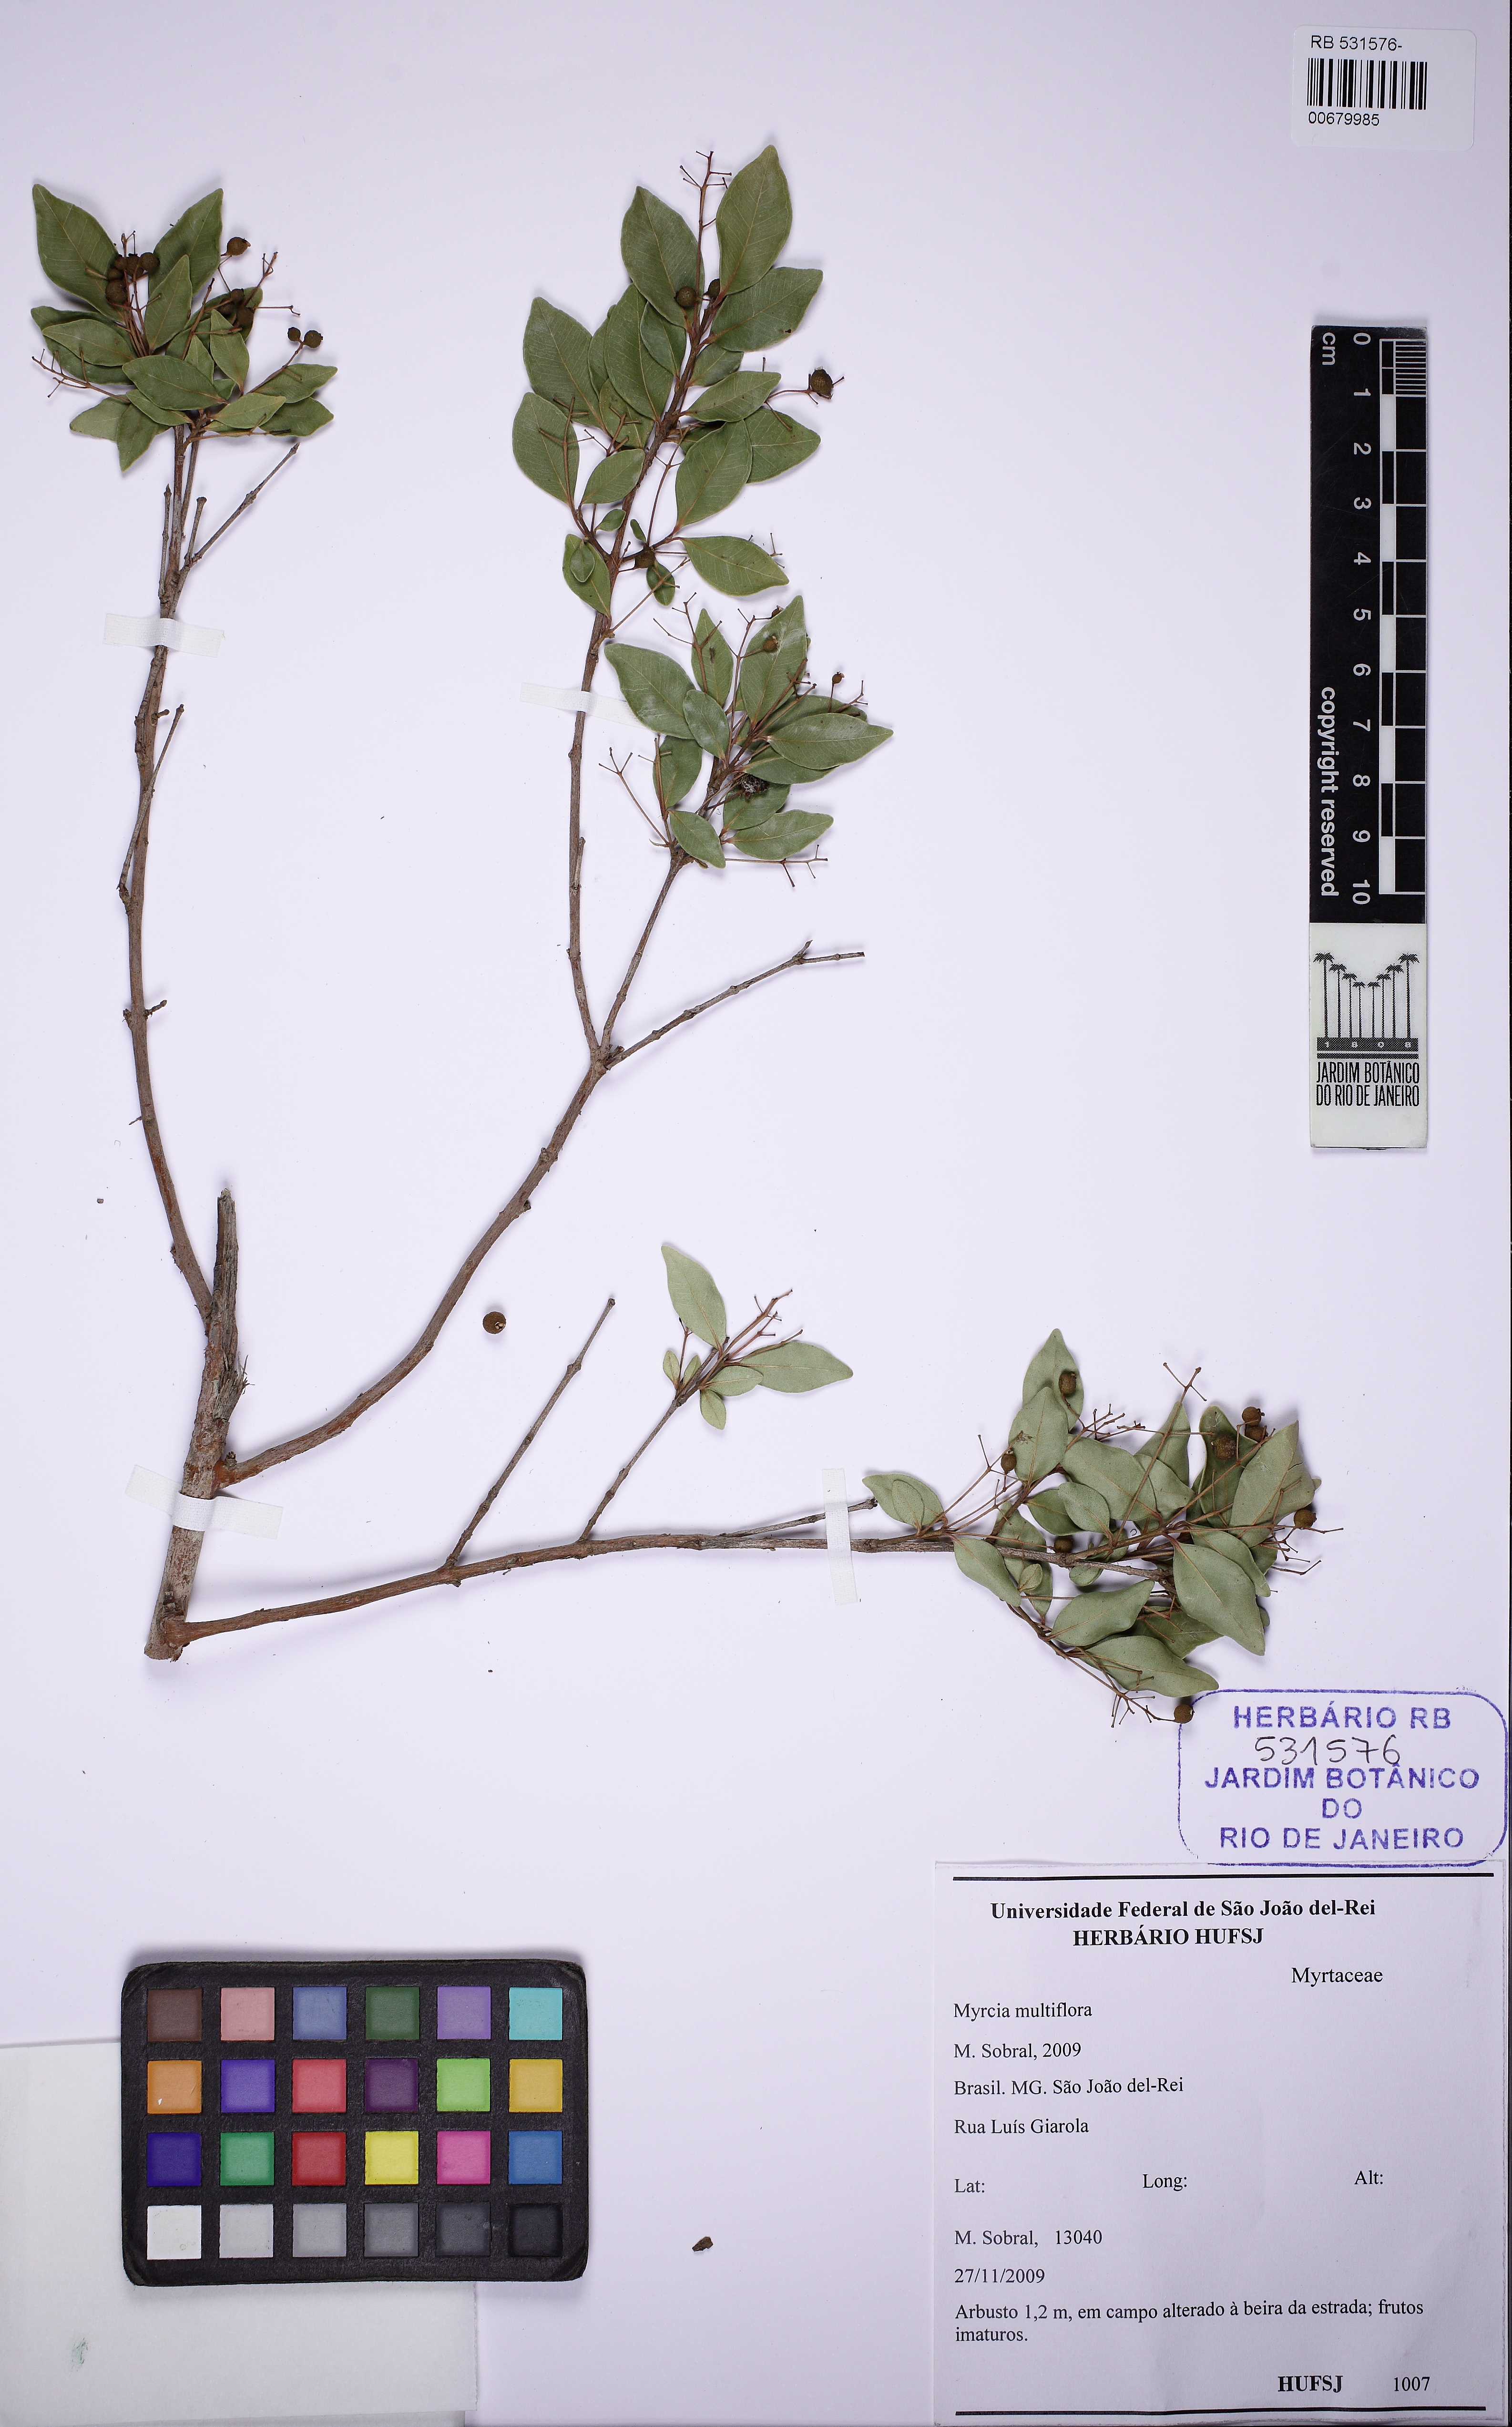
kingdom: Plantae
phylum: Tracheophyta
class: Magnoliopsida
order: Myrtales
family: Myrtaceae
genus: Myrcia
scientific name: Myrcia multiflora
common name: Pedra hume
